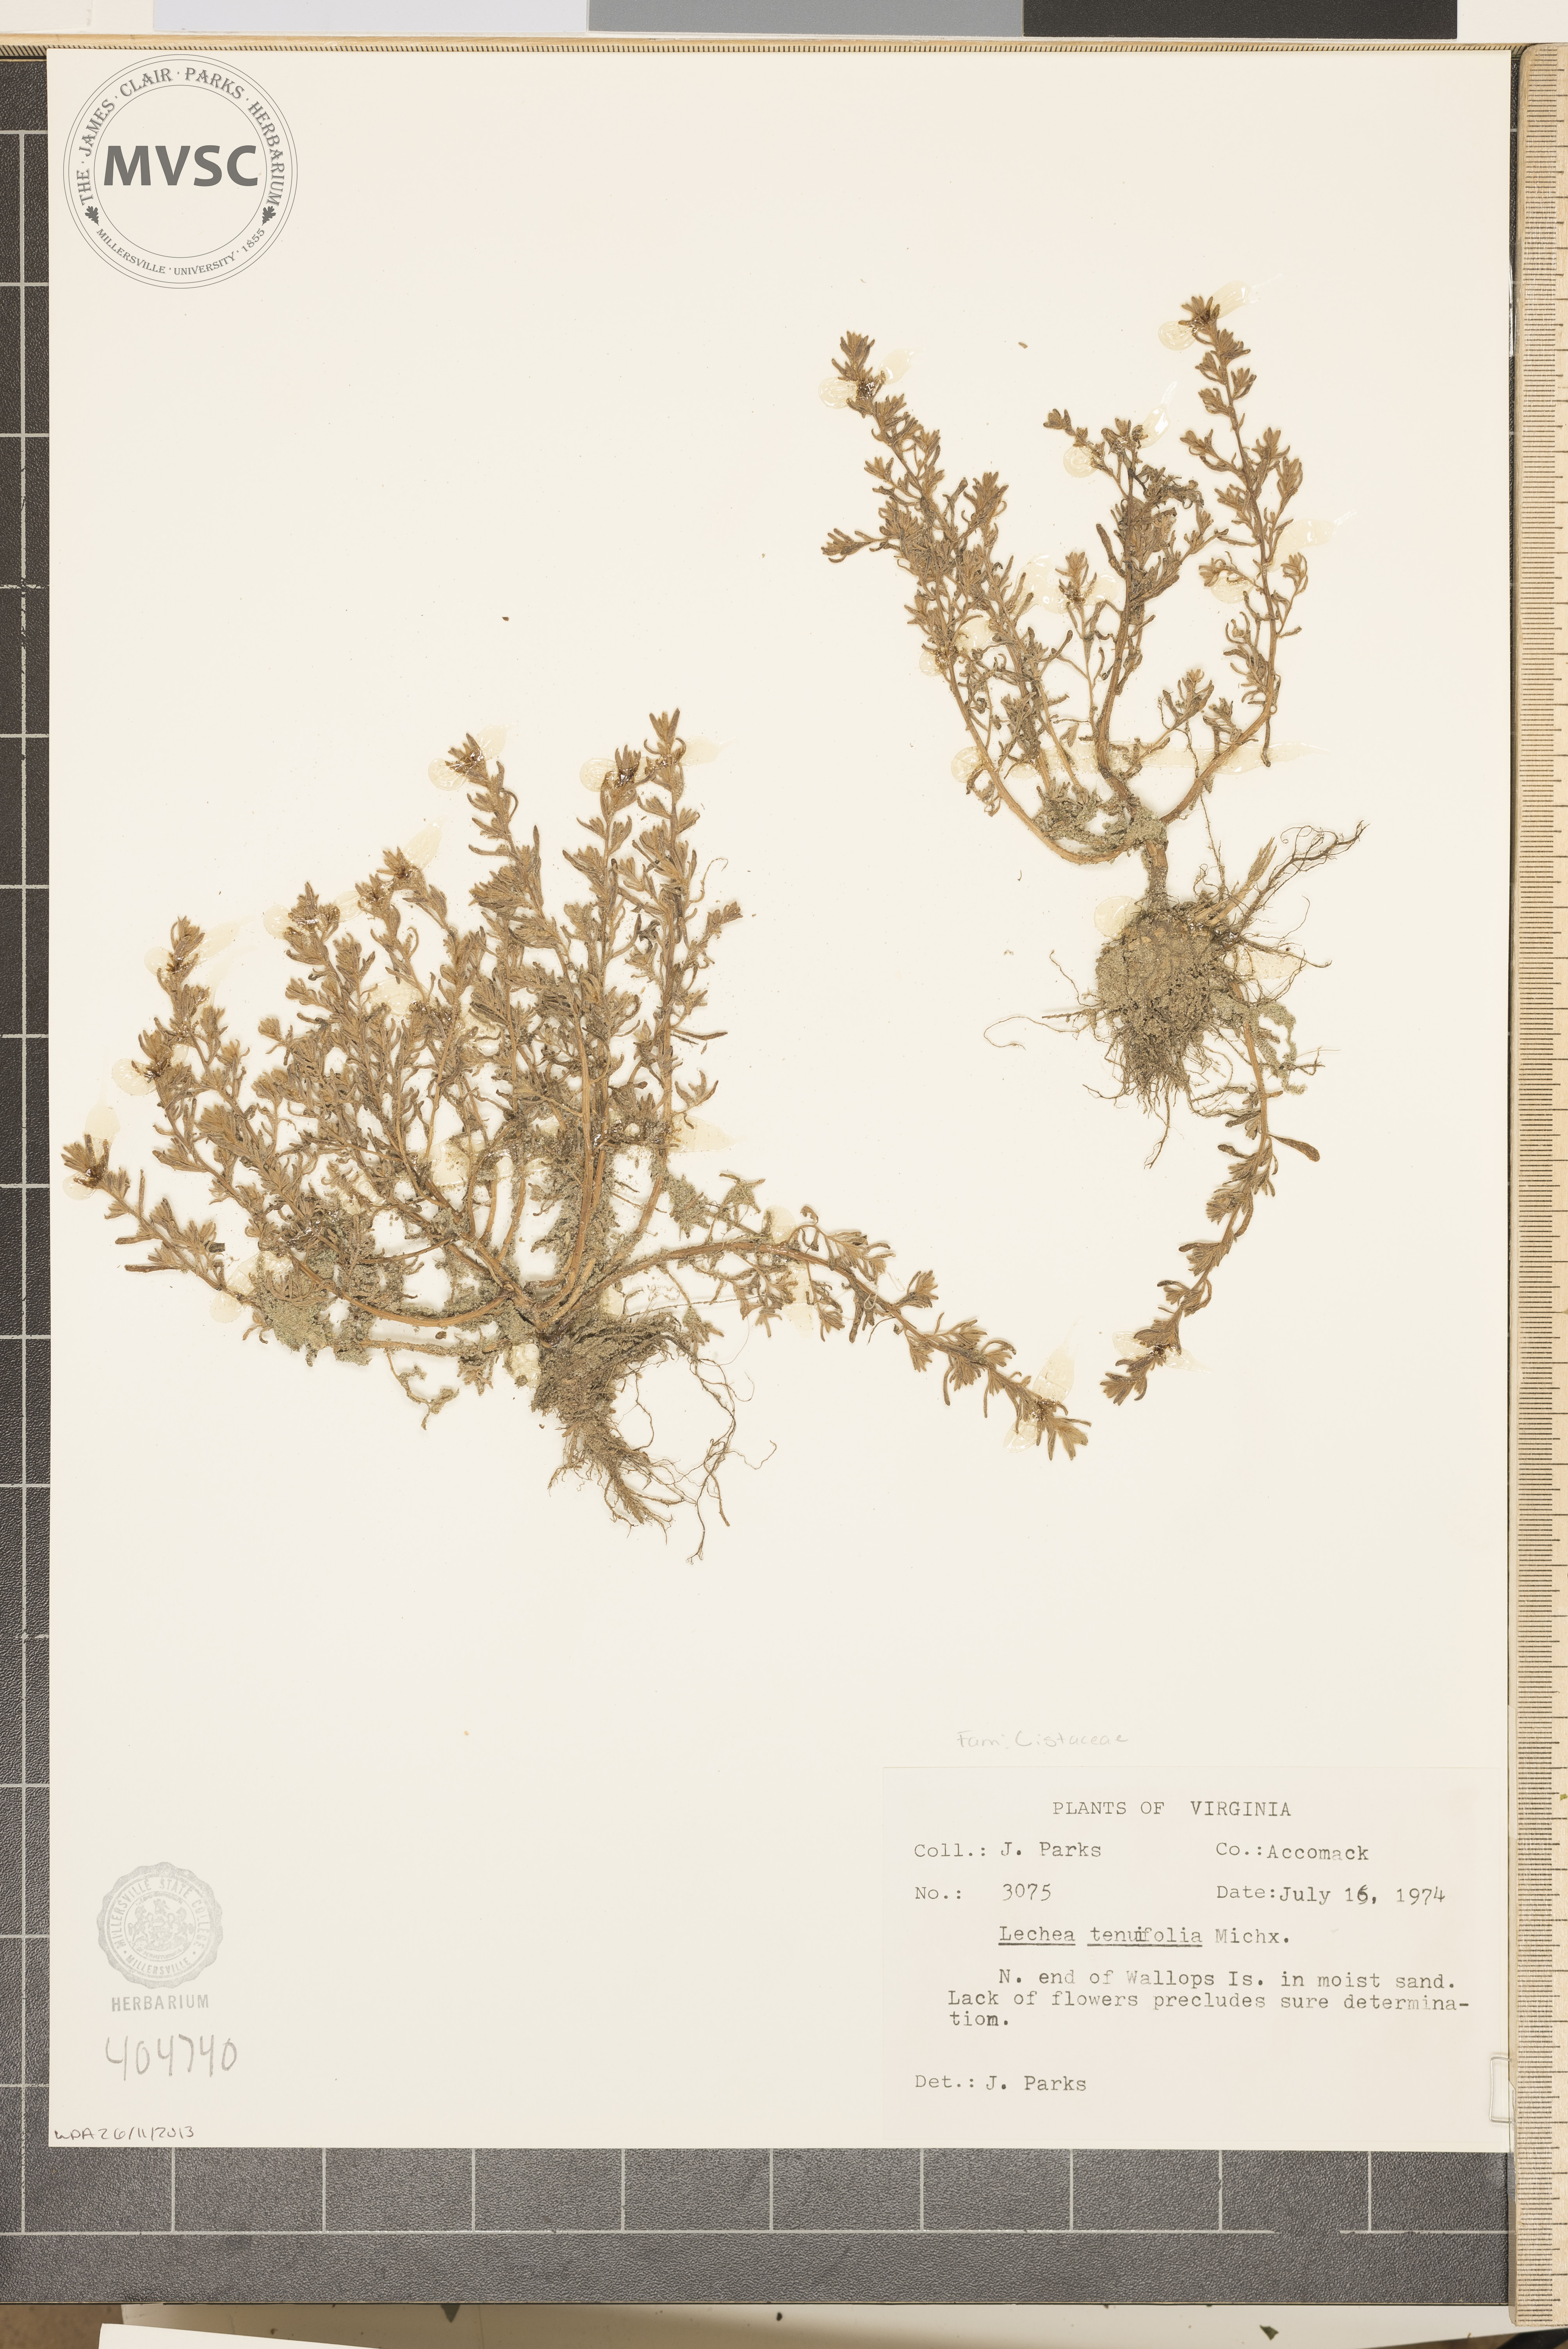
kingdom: Plantae
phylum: Tracheophyta
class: Magnoliopsida
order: Malvales
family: Cistaceae
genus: Lechea
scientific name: Lechea tenuifolia
